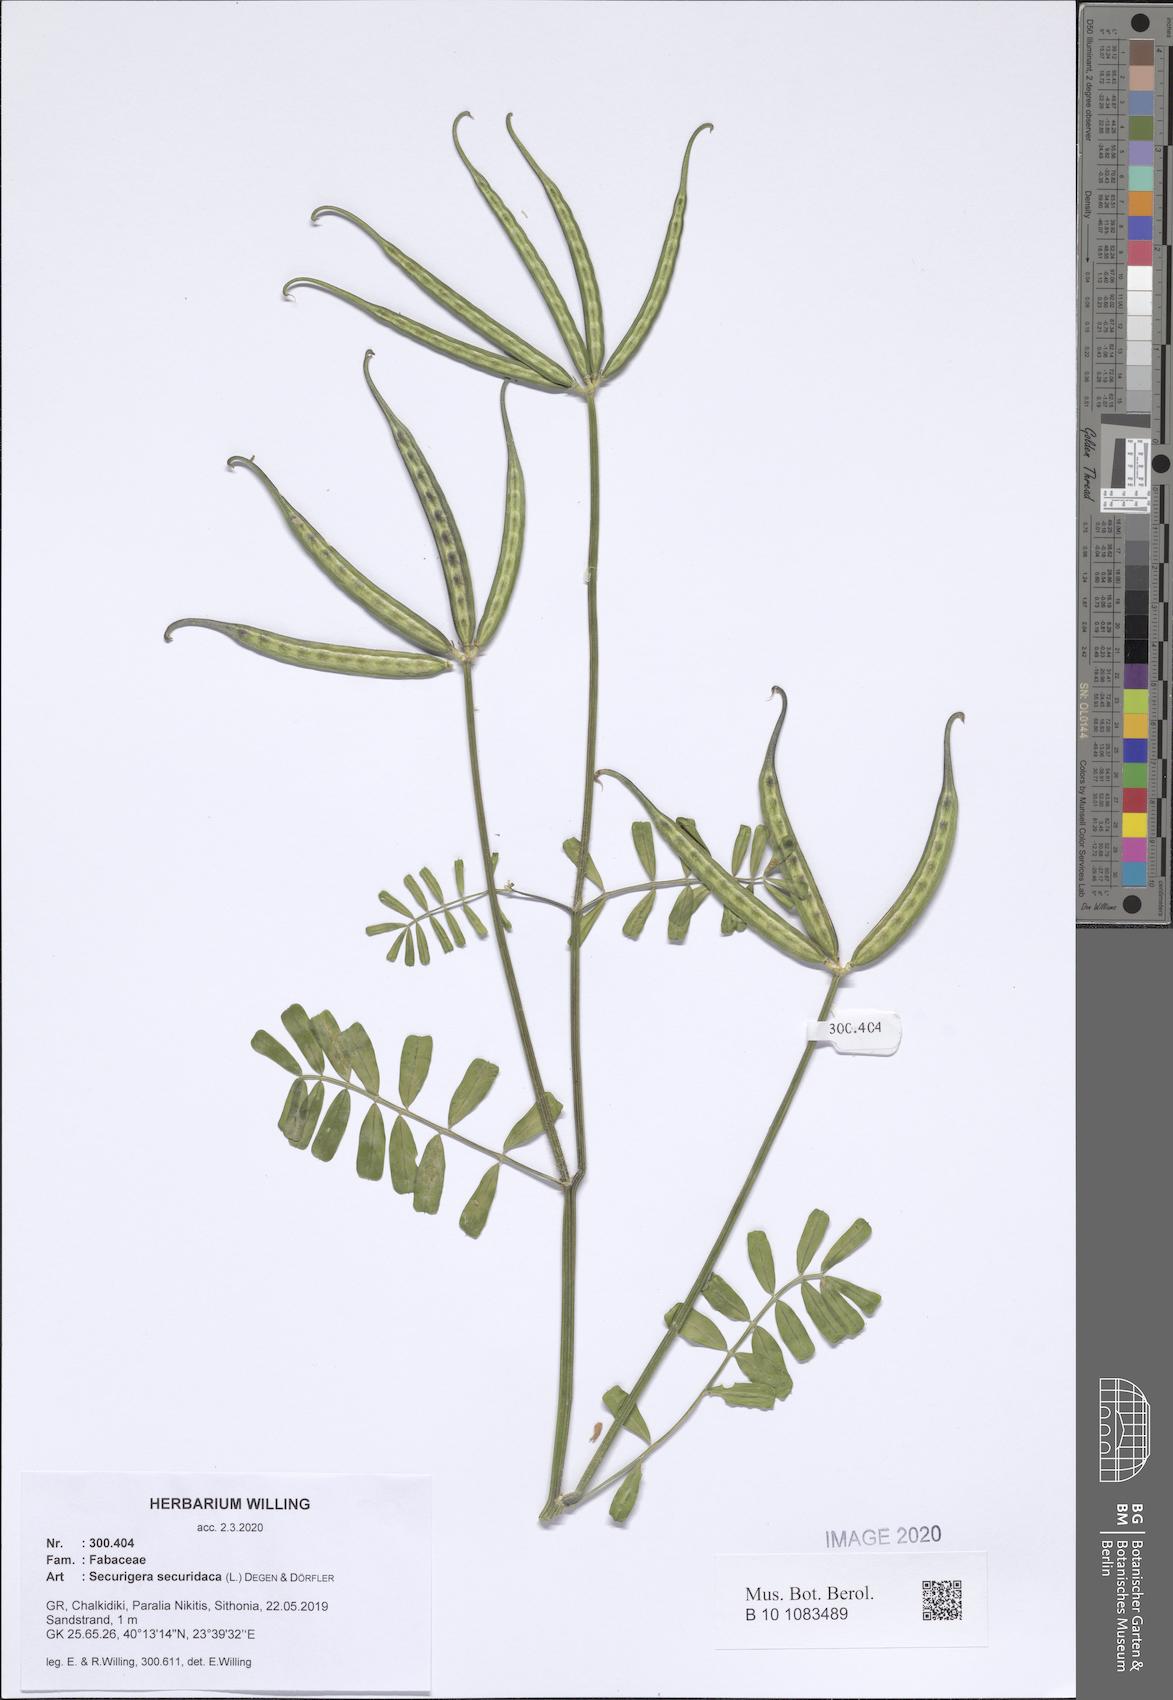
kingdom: Plantae
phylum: Tracheophyta
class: Magnoliopsida
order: Fabales
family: Fabaceae
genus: Coronilla
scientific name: Coronilla securidaca
